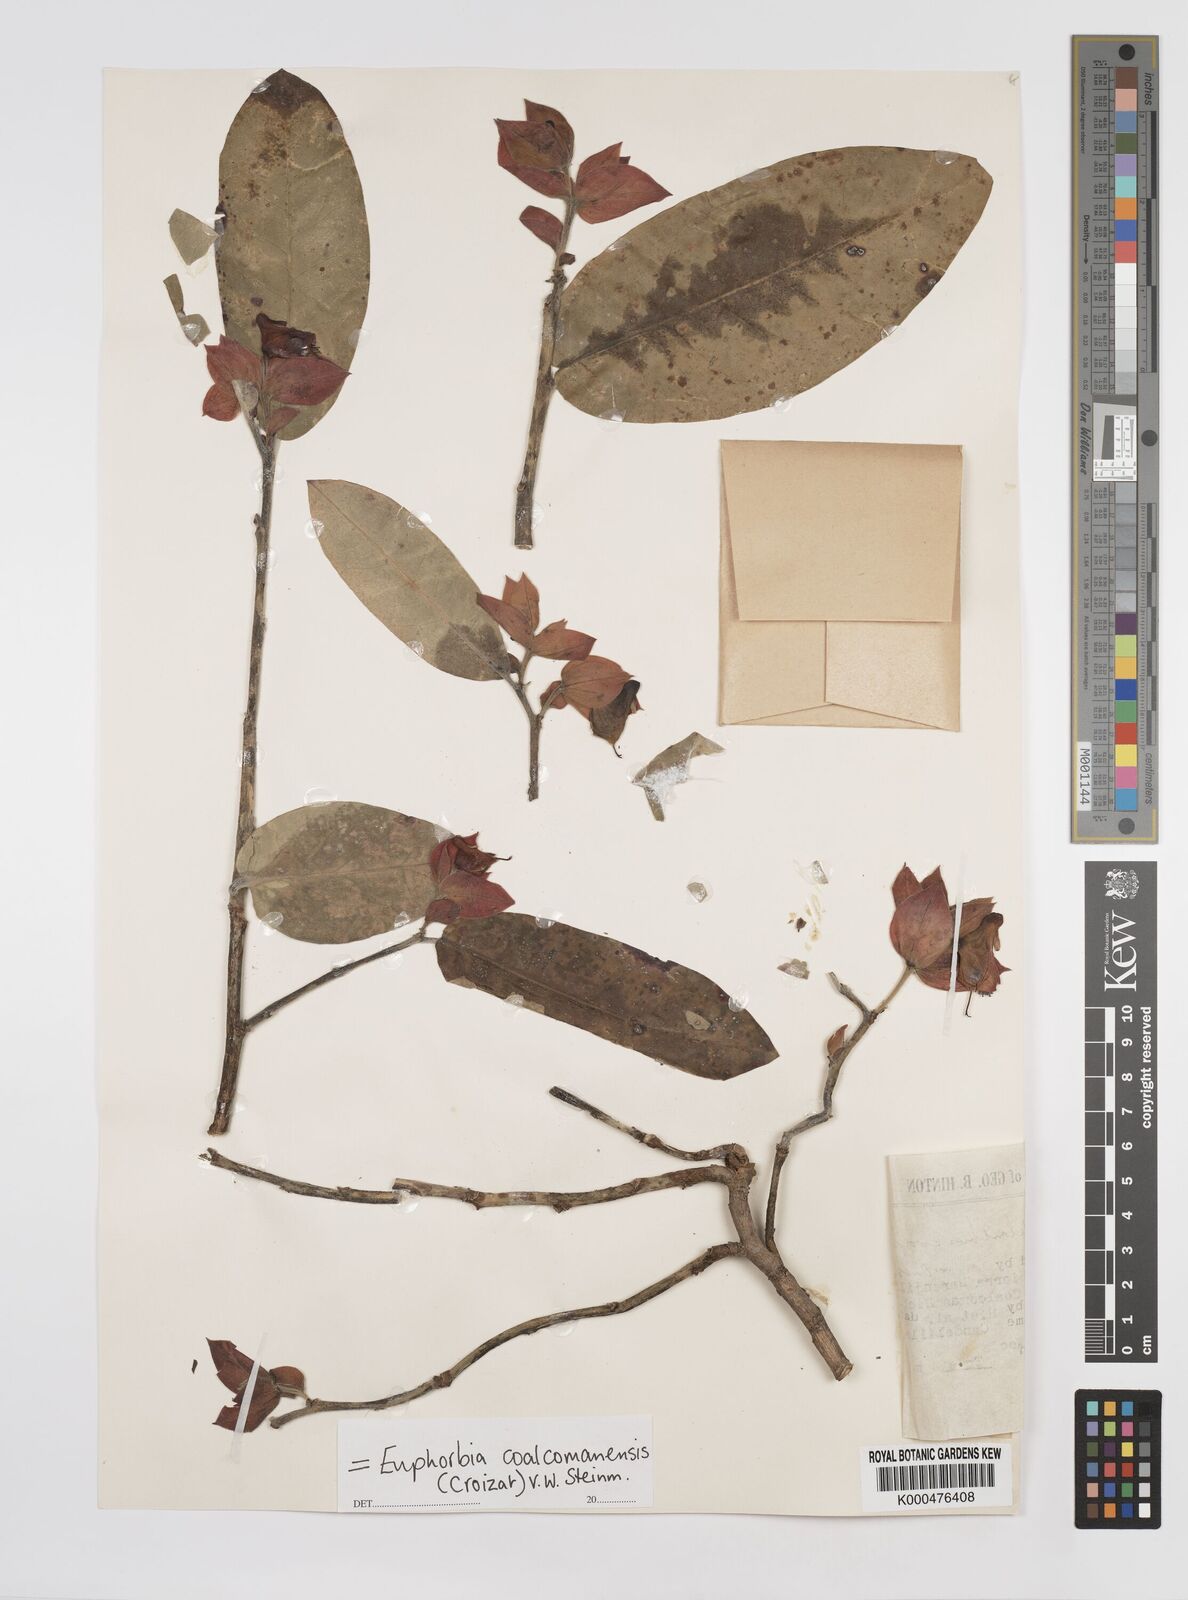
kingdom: Plantae
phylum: Tracheophyta
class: Magnoliopsida
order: Malpighiales
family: Euphorbiaceae
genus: Euphorbia
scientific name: Euphorbia coalcomanensis
